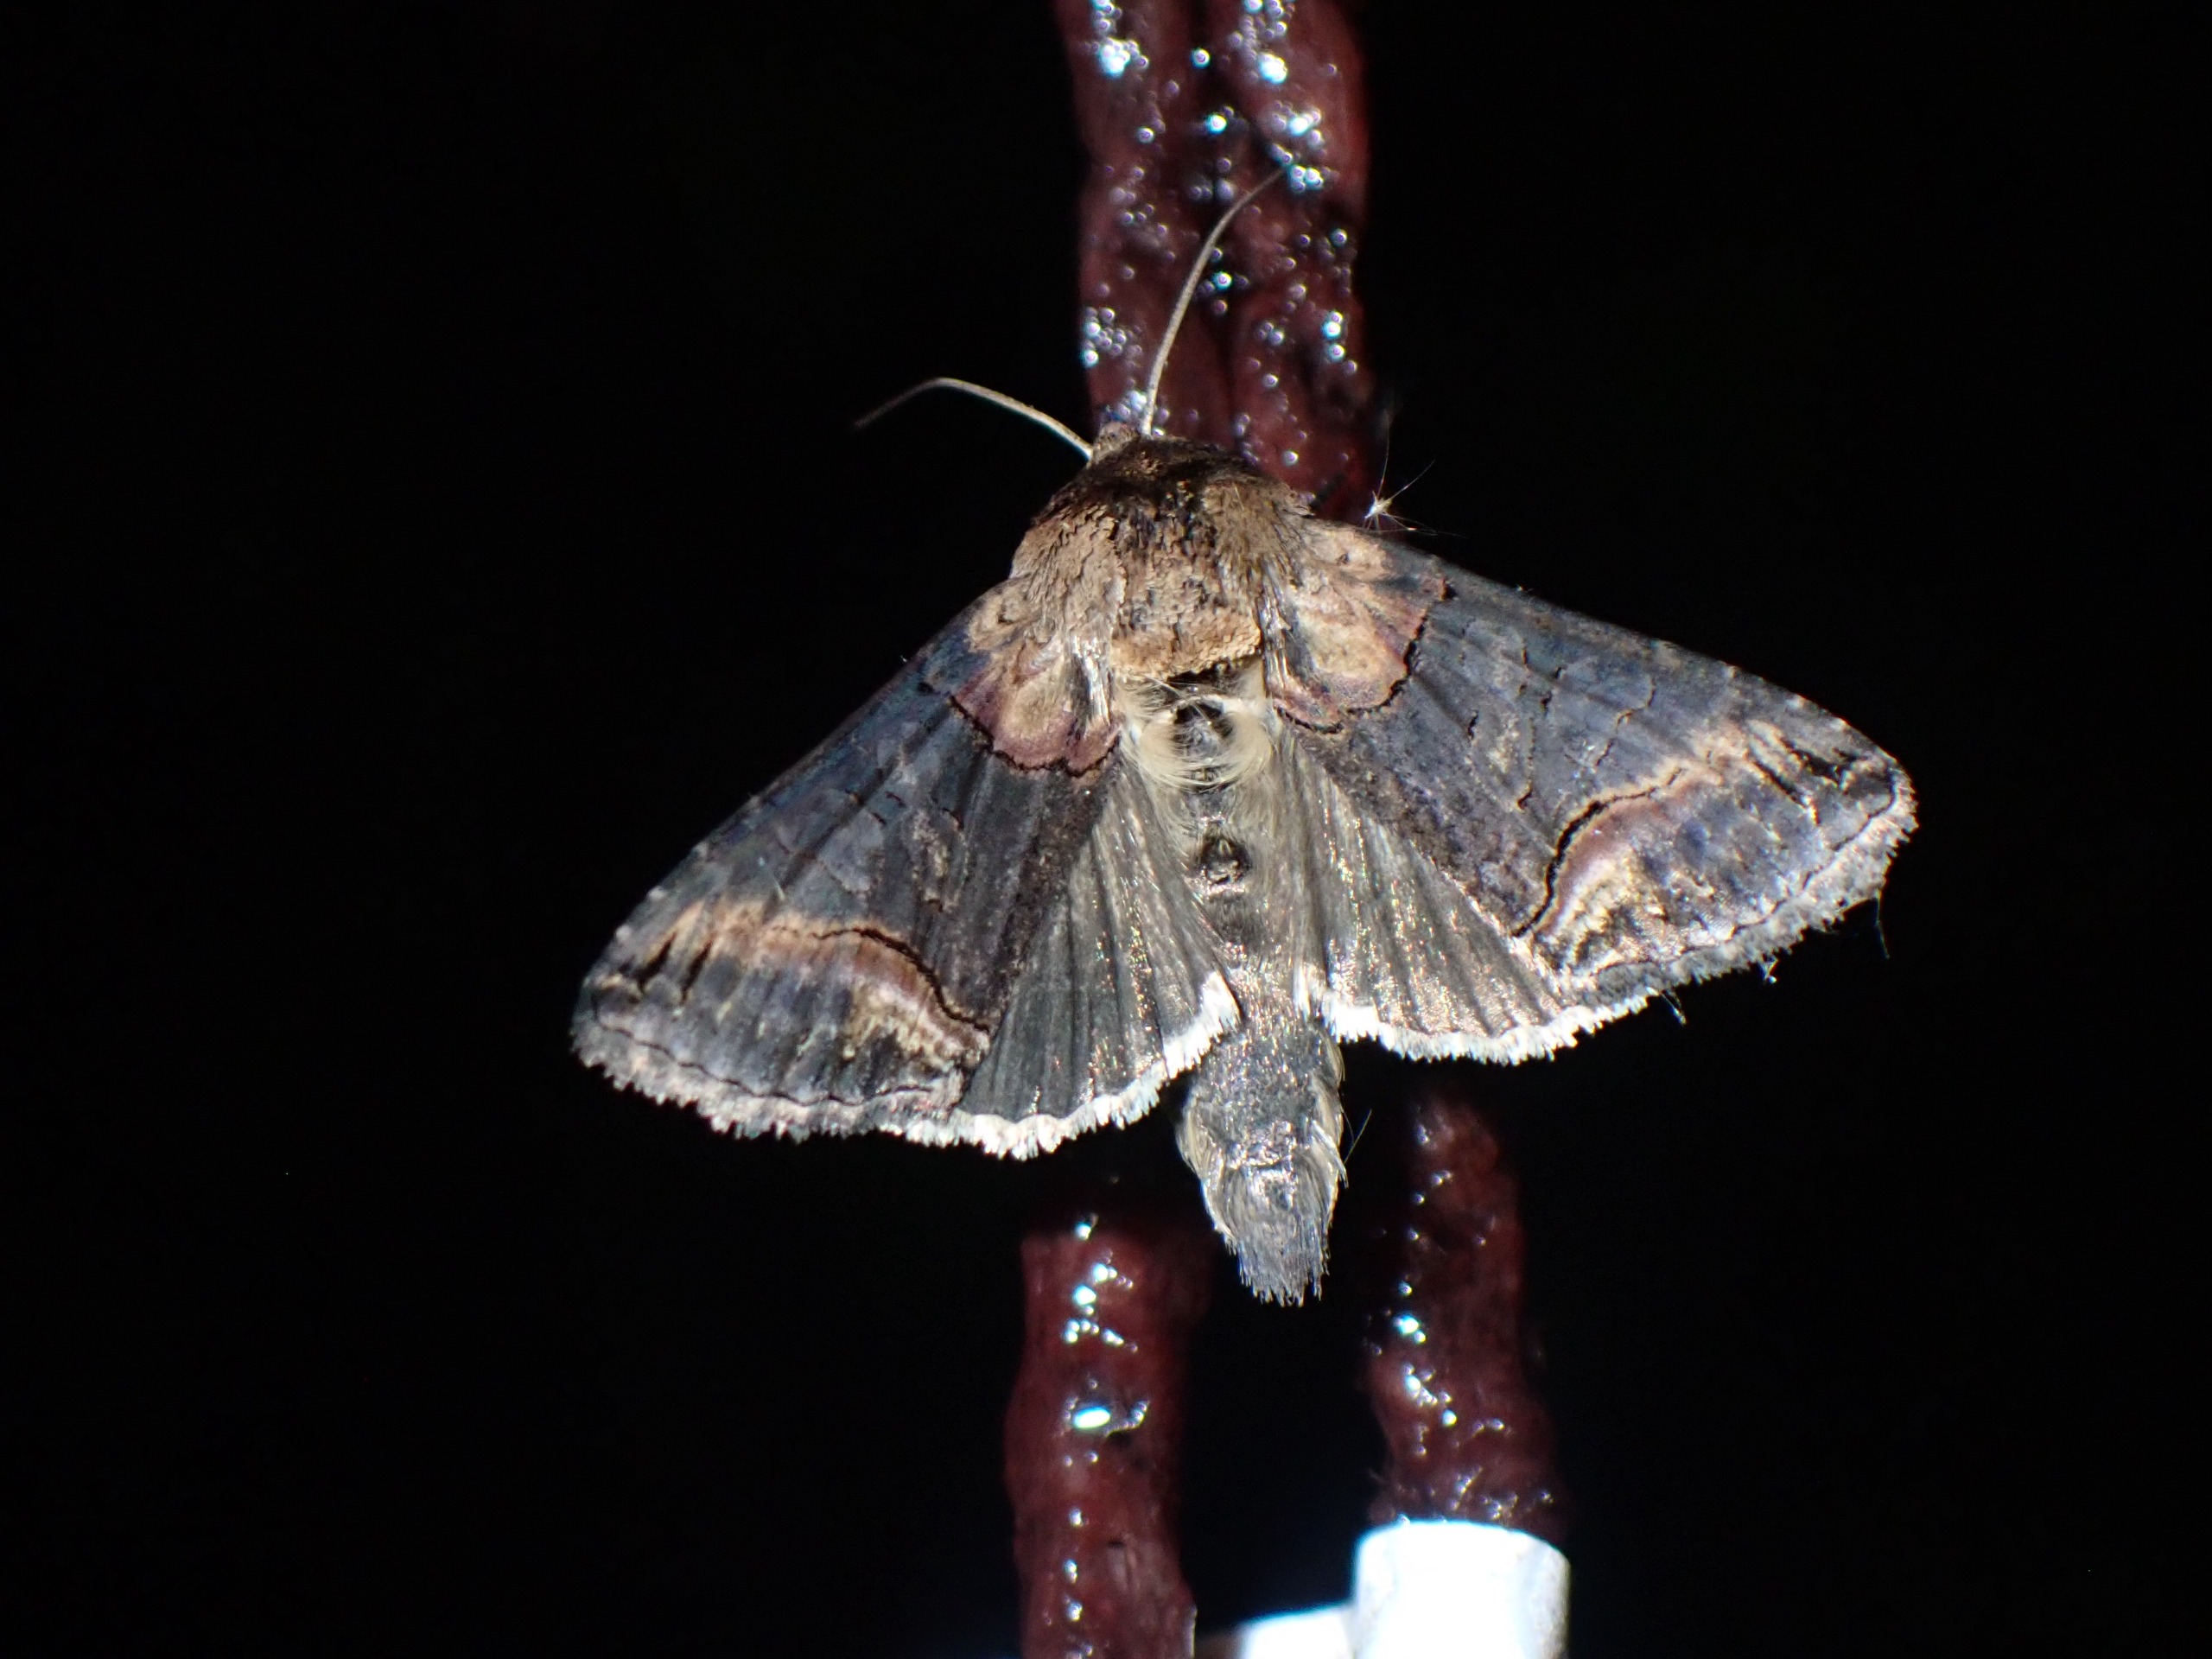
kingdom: Animalia
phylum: Arthropoda
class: Insecta
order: Lepidoptera
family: Noctuidae
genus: Abrostola
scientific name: Abrostola triplasia
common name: Brun nælde-brilleugle
